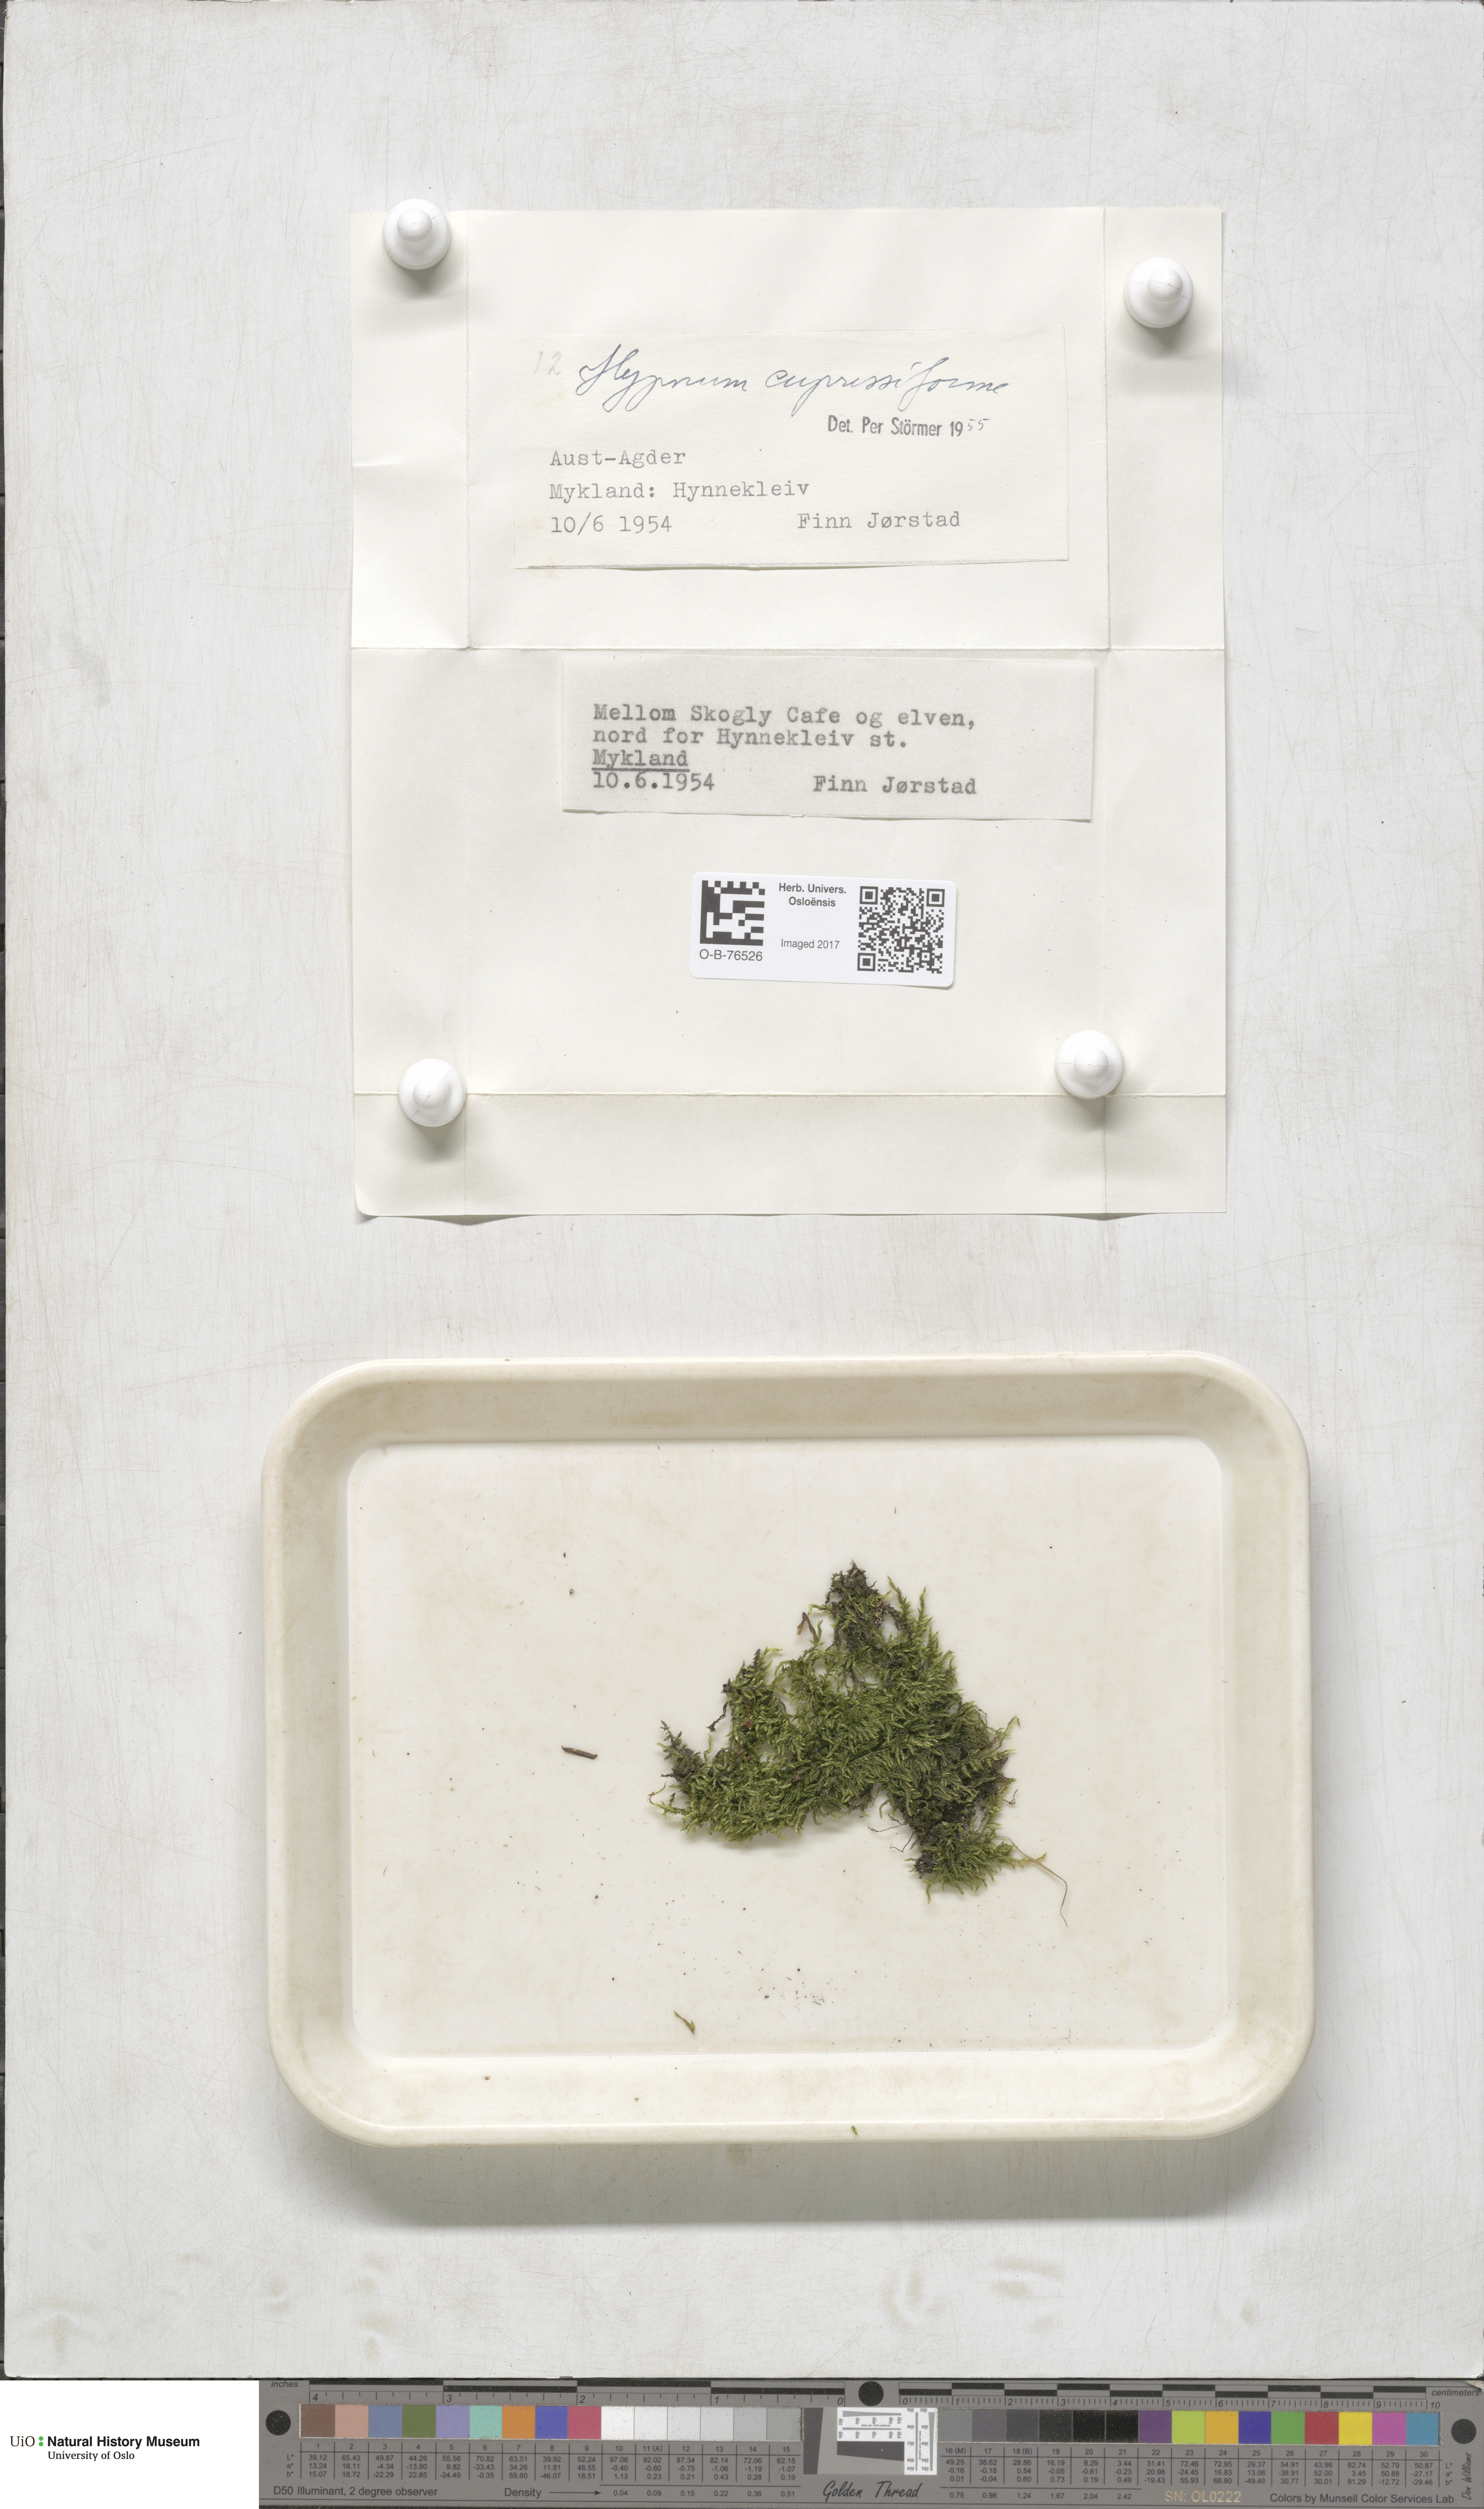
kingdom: Plantae
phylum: Bryophyta
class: Bryopsida
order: Hypnales
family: Hypnaceae
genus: Hypnum
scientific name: Hypnum cupressiforme
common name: Cypress-leaved plait-moss
